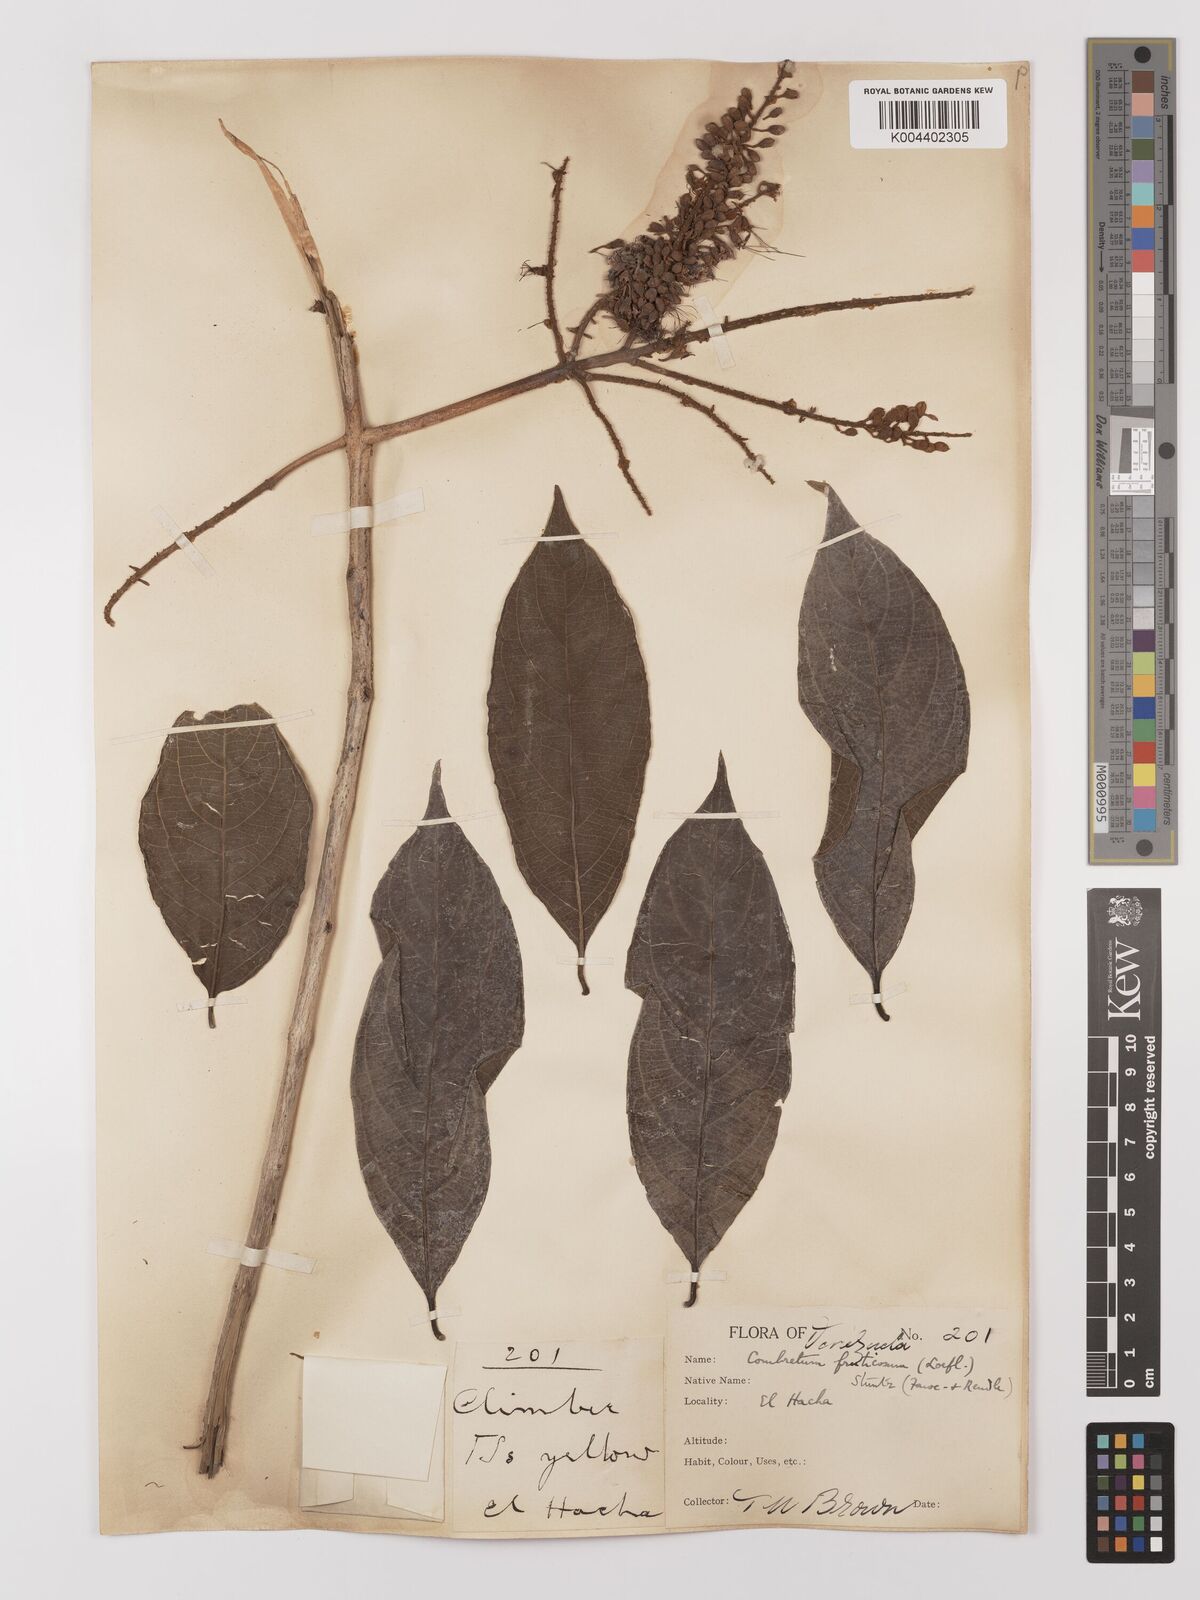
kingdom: Plantae
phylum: Tracheophyta
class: Magnoliopsida
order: Myrtales
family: Combretaceae
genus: Combretum
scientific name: Combretum fruticosum
